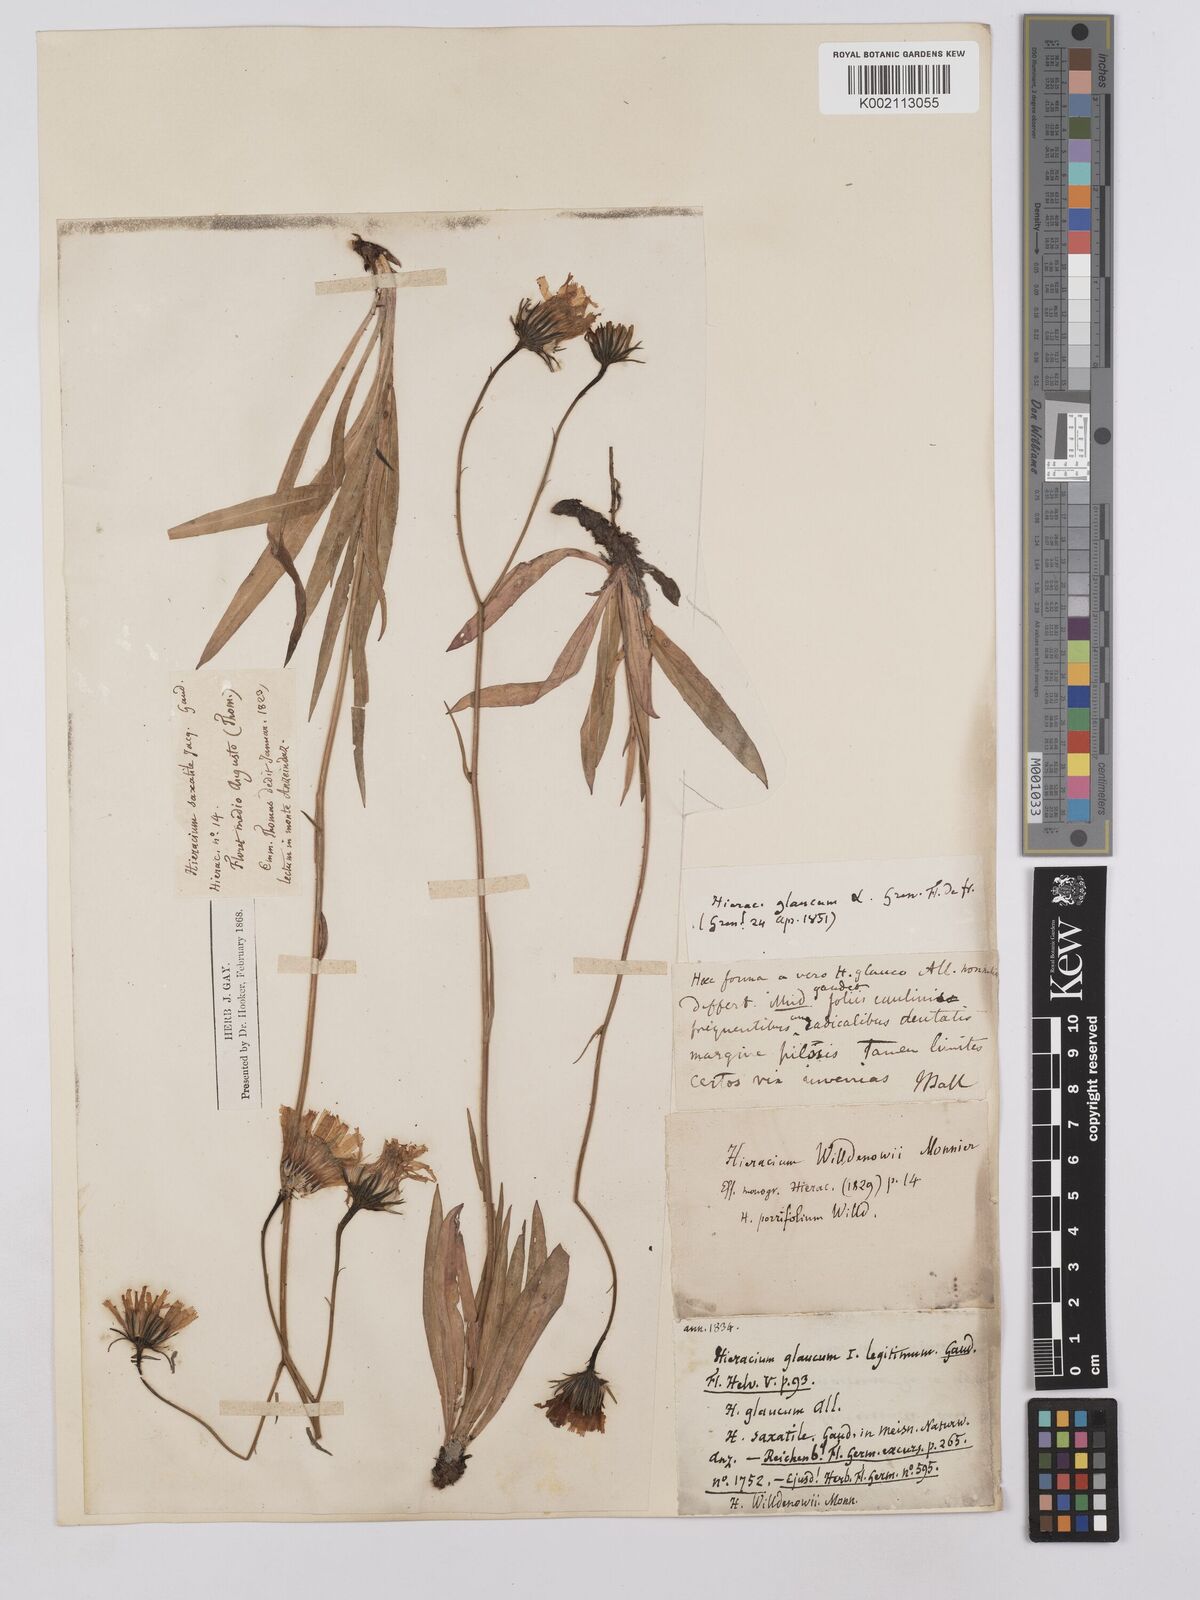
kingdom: Plantae
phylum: Tracheophyta
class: Magnoliopsida
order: Asterales
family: Asteraceae
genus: Hieracium
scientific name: Hieracium bupleuroides
